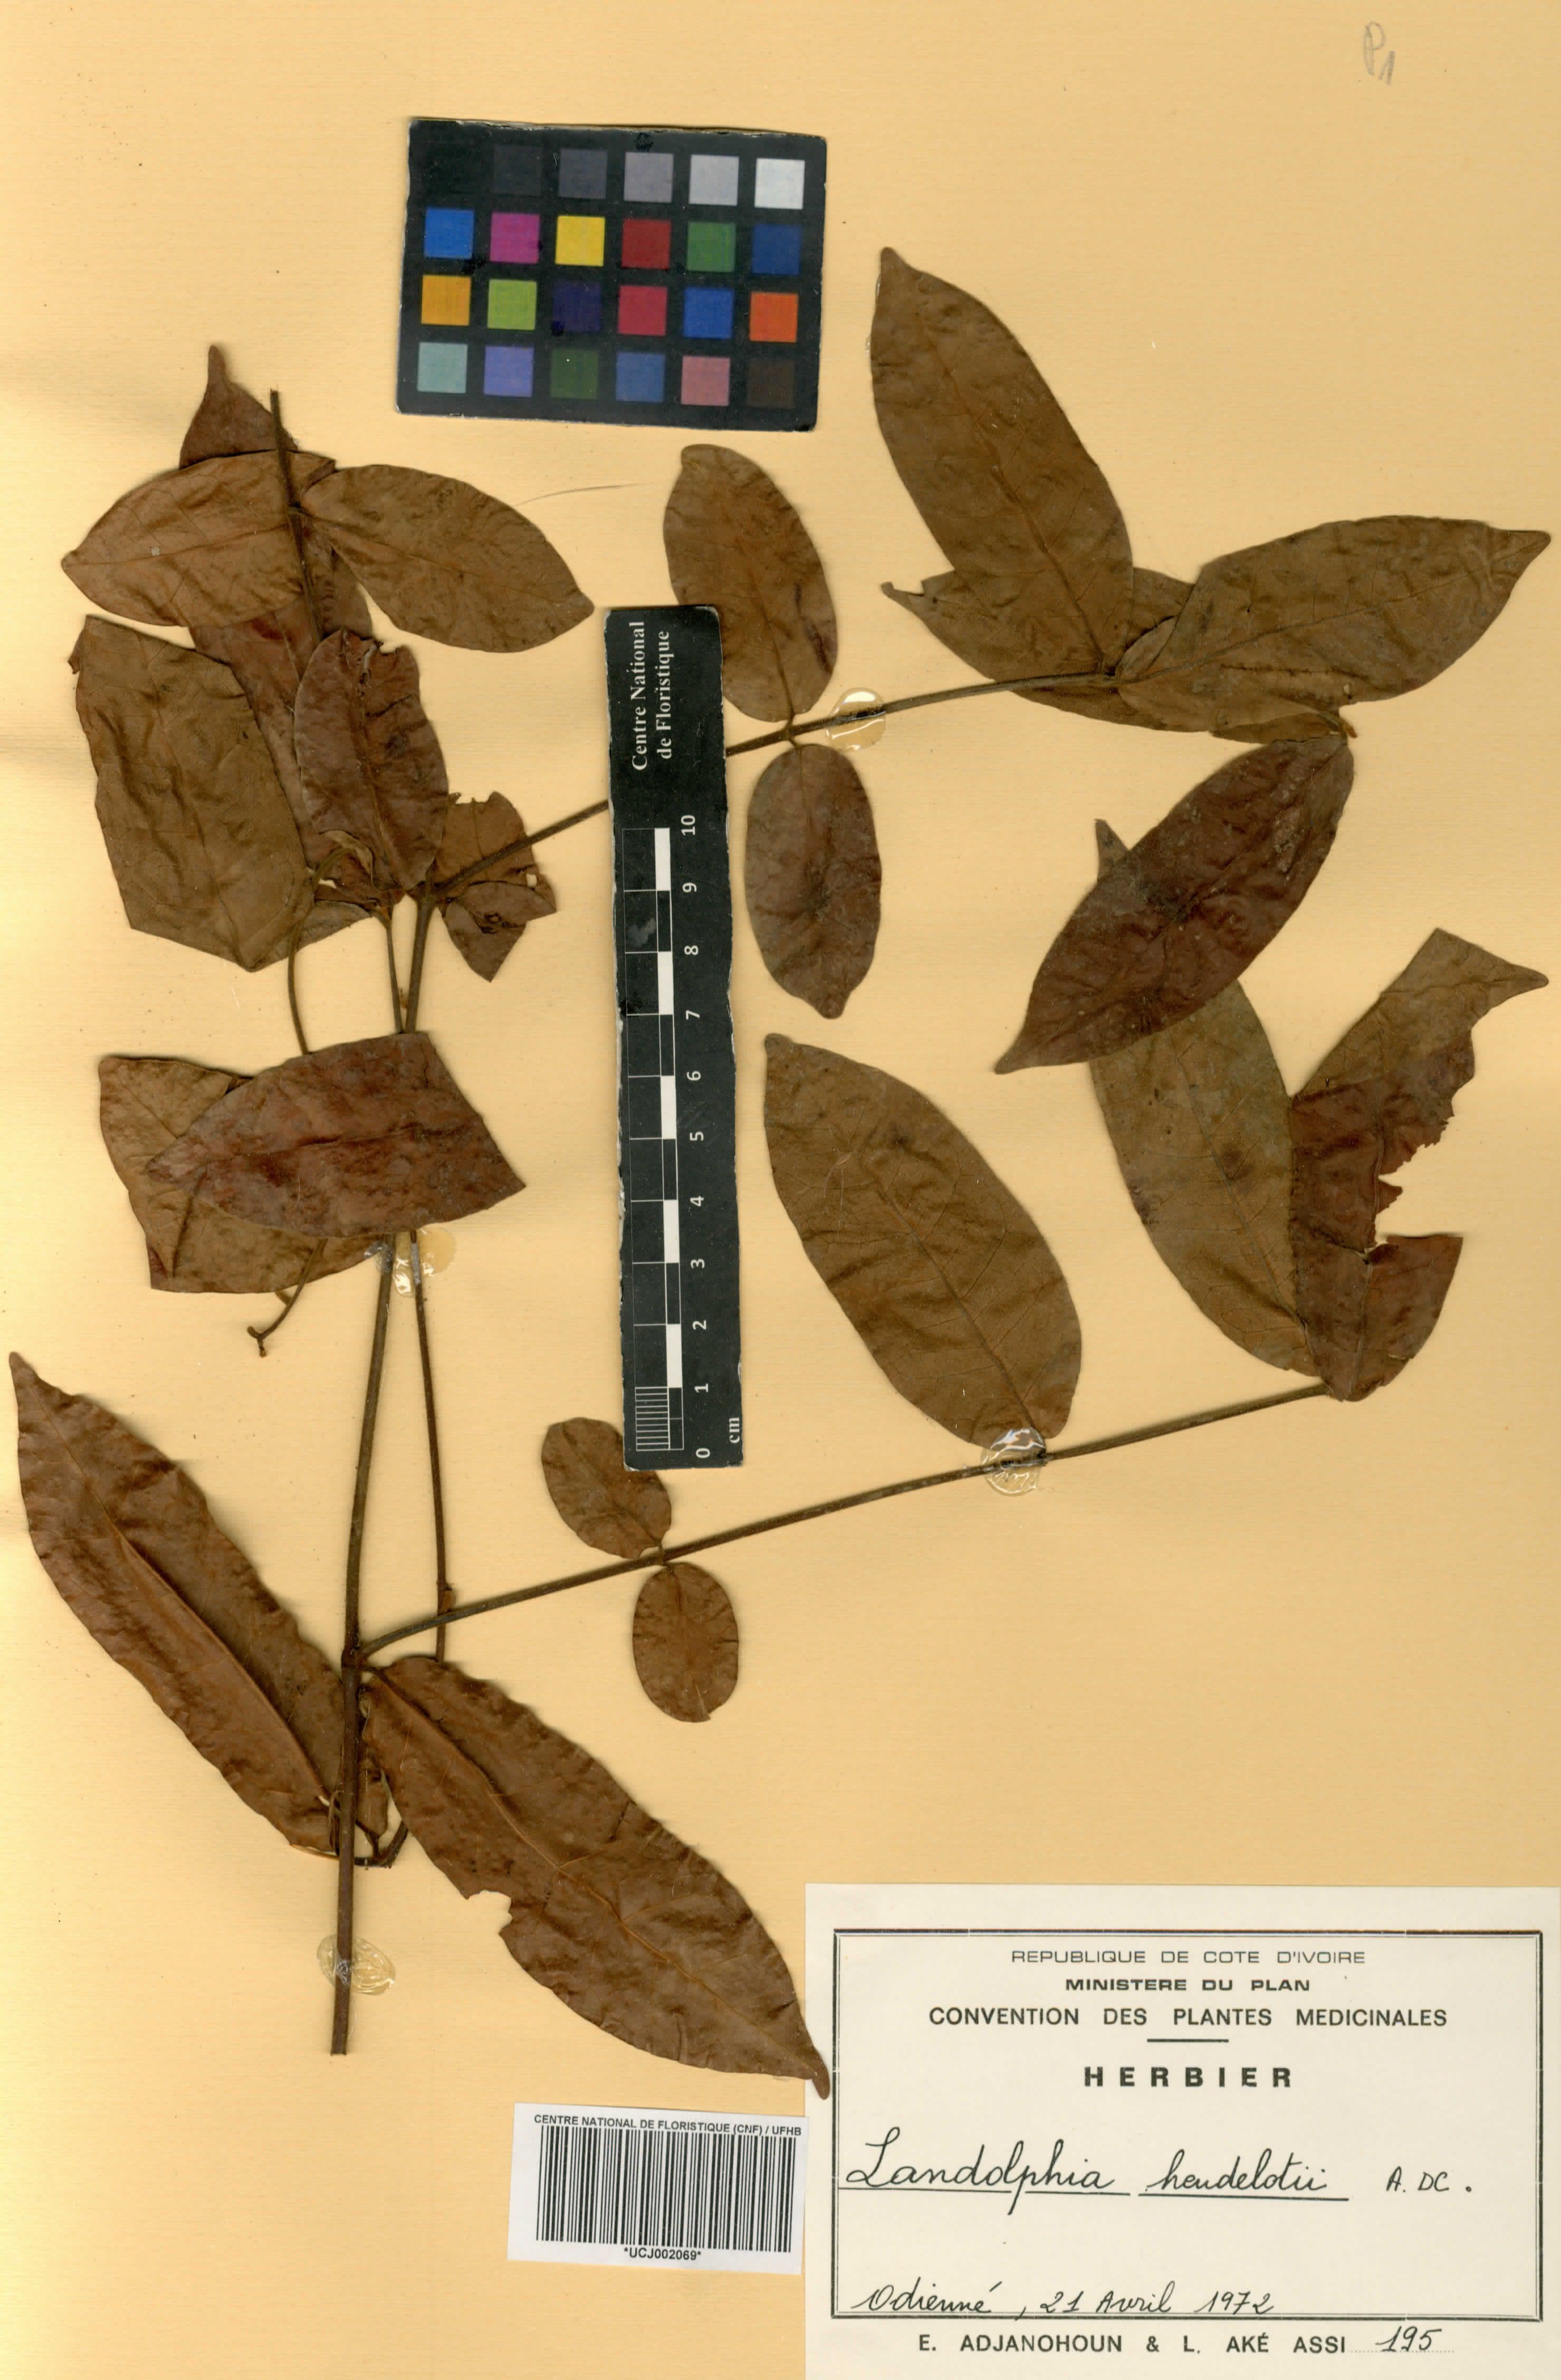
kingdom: Plantae
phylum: Tracheophyta
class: Magnoliopsida
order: Gentianales
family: Apocynaceae
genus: Landolphia
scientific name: Landolphia heudelotii
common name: Landolphia-rubber
